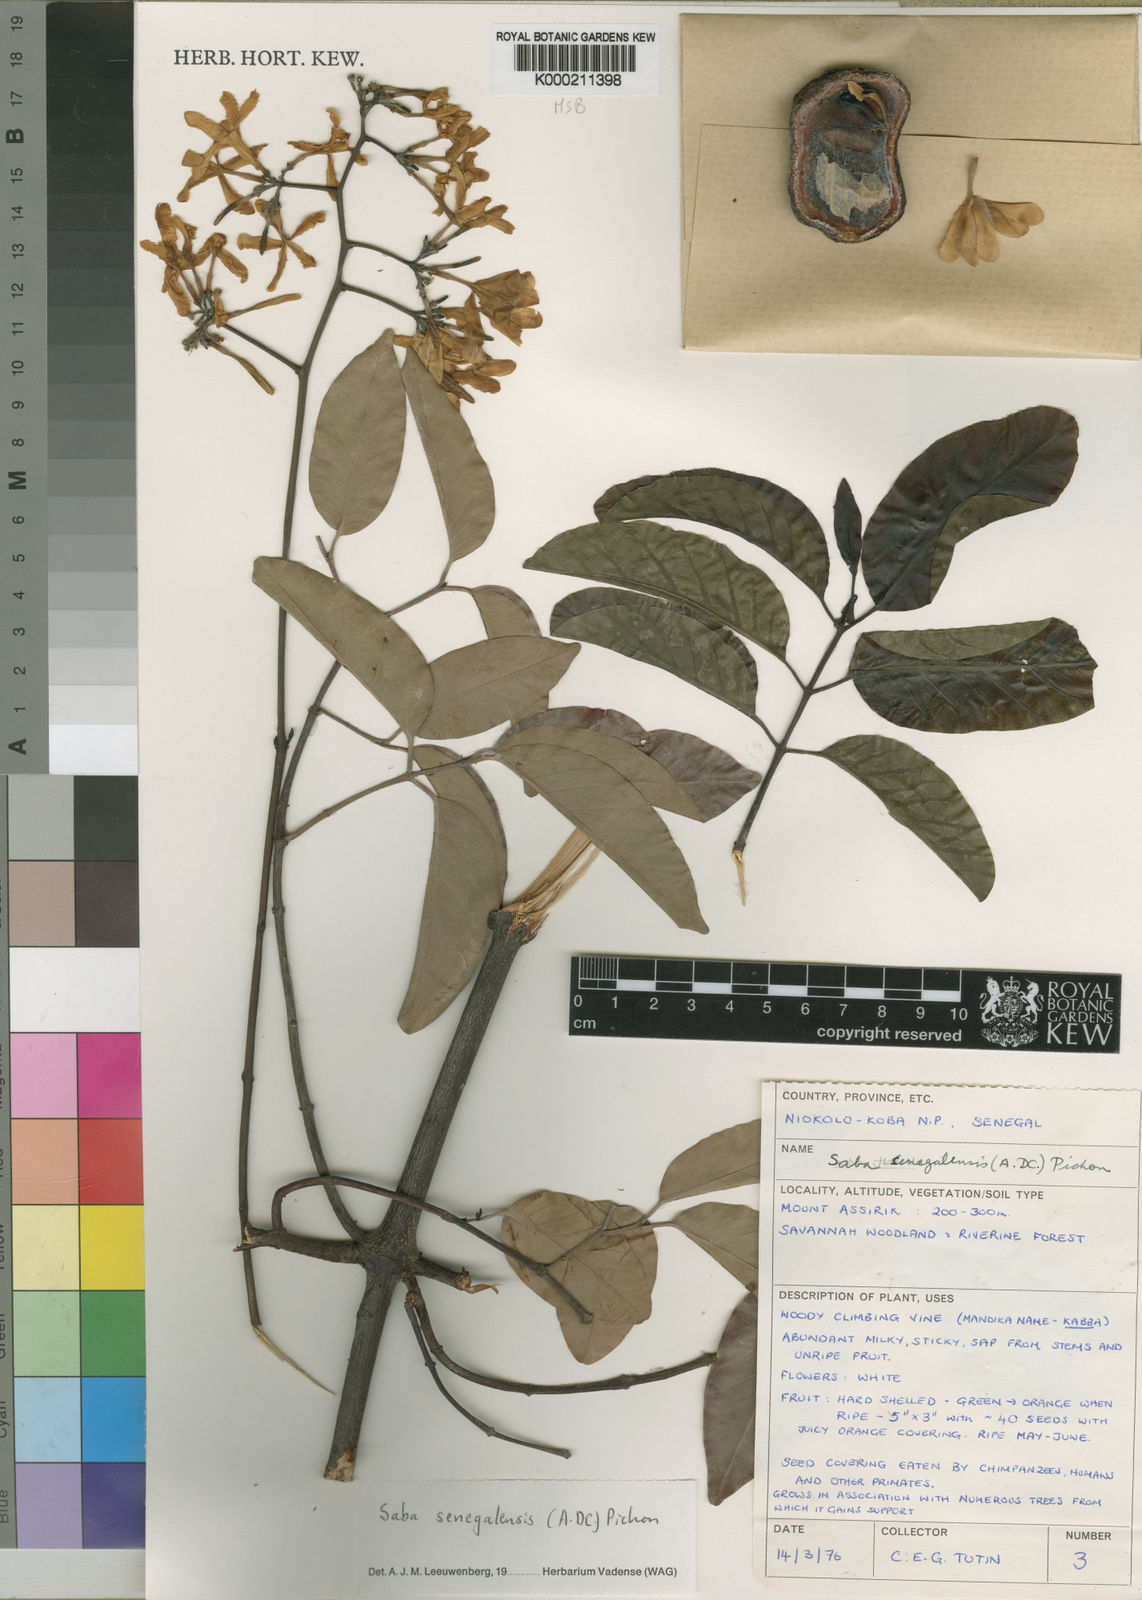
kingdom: Plantae
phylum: Tracheophyta
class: Magnoliopsida
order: Gentianales
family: Apocynaceae
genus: Saba
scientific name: Saba senegalensis
